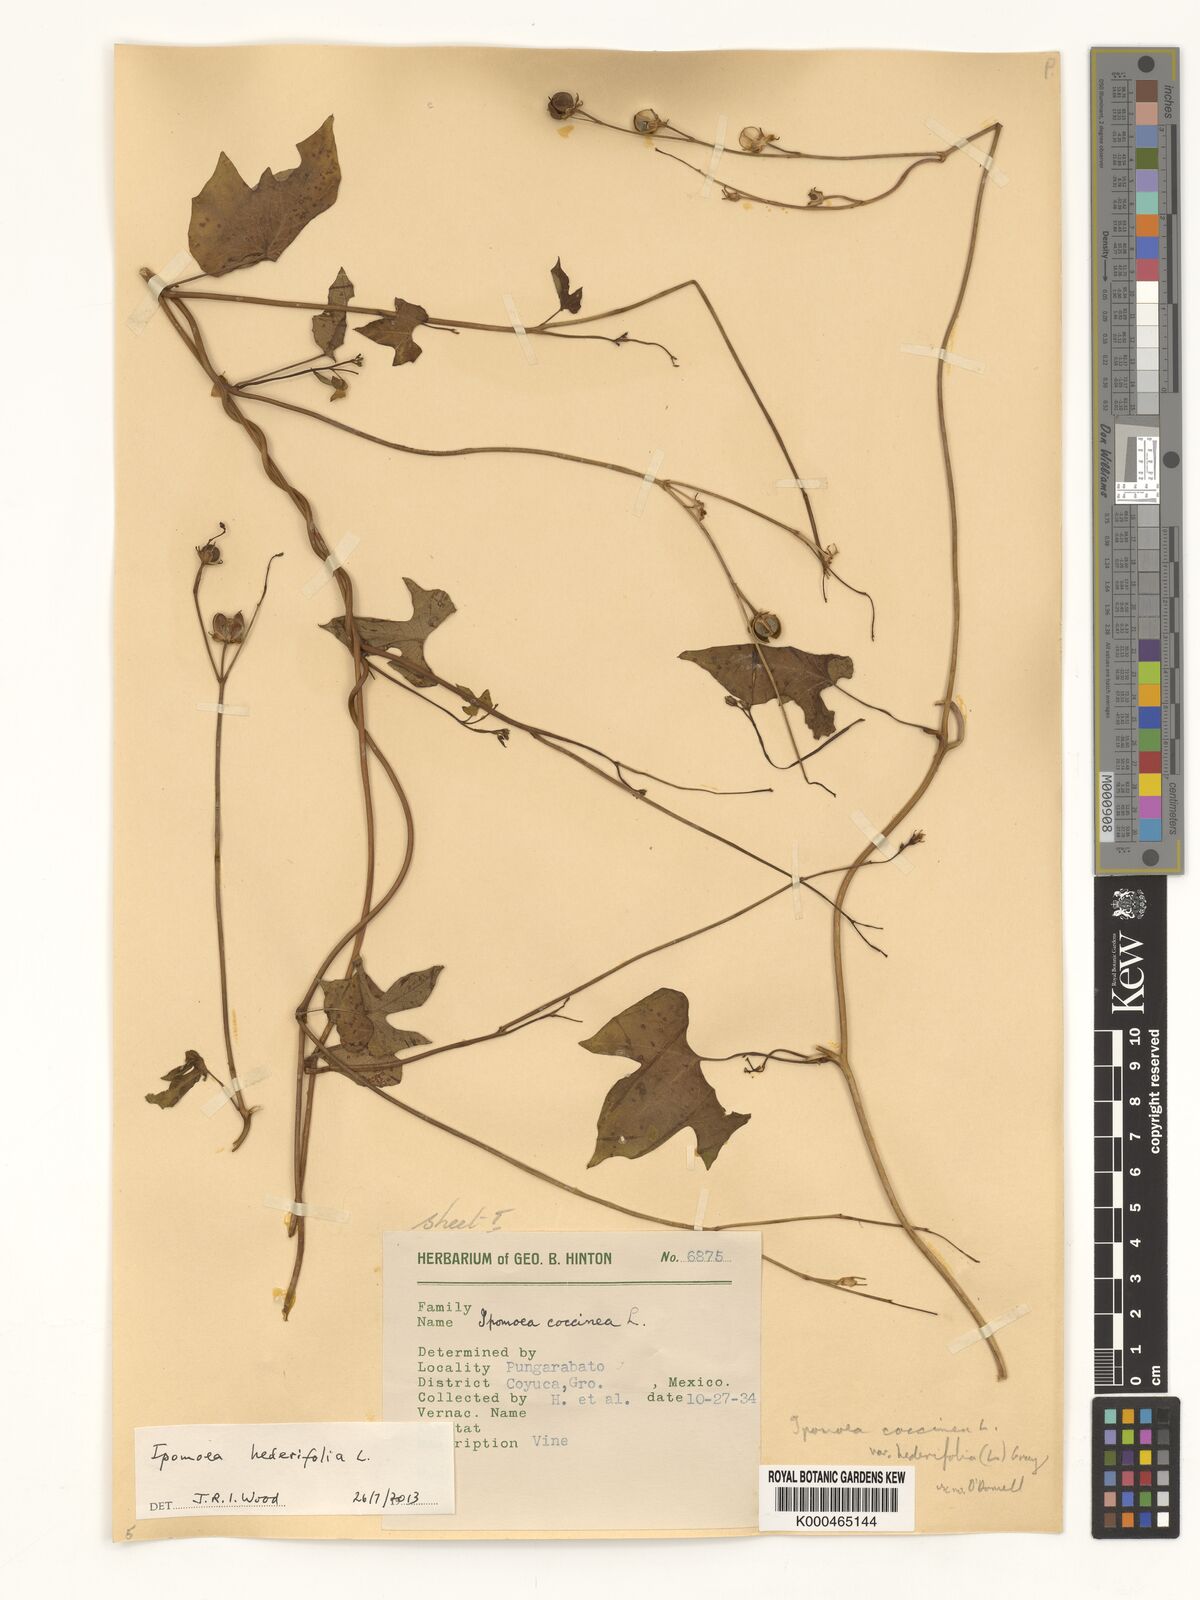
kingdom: Plantae
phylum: Tracheophyta
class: Magnoliopsida
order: Solanales
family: Convolvulaceae
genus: Ipomoea
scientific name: Ipomoea hederifolia
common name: Ivy-leaf morning-glory
